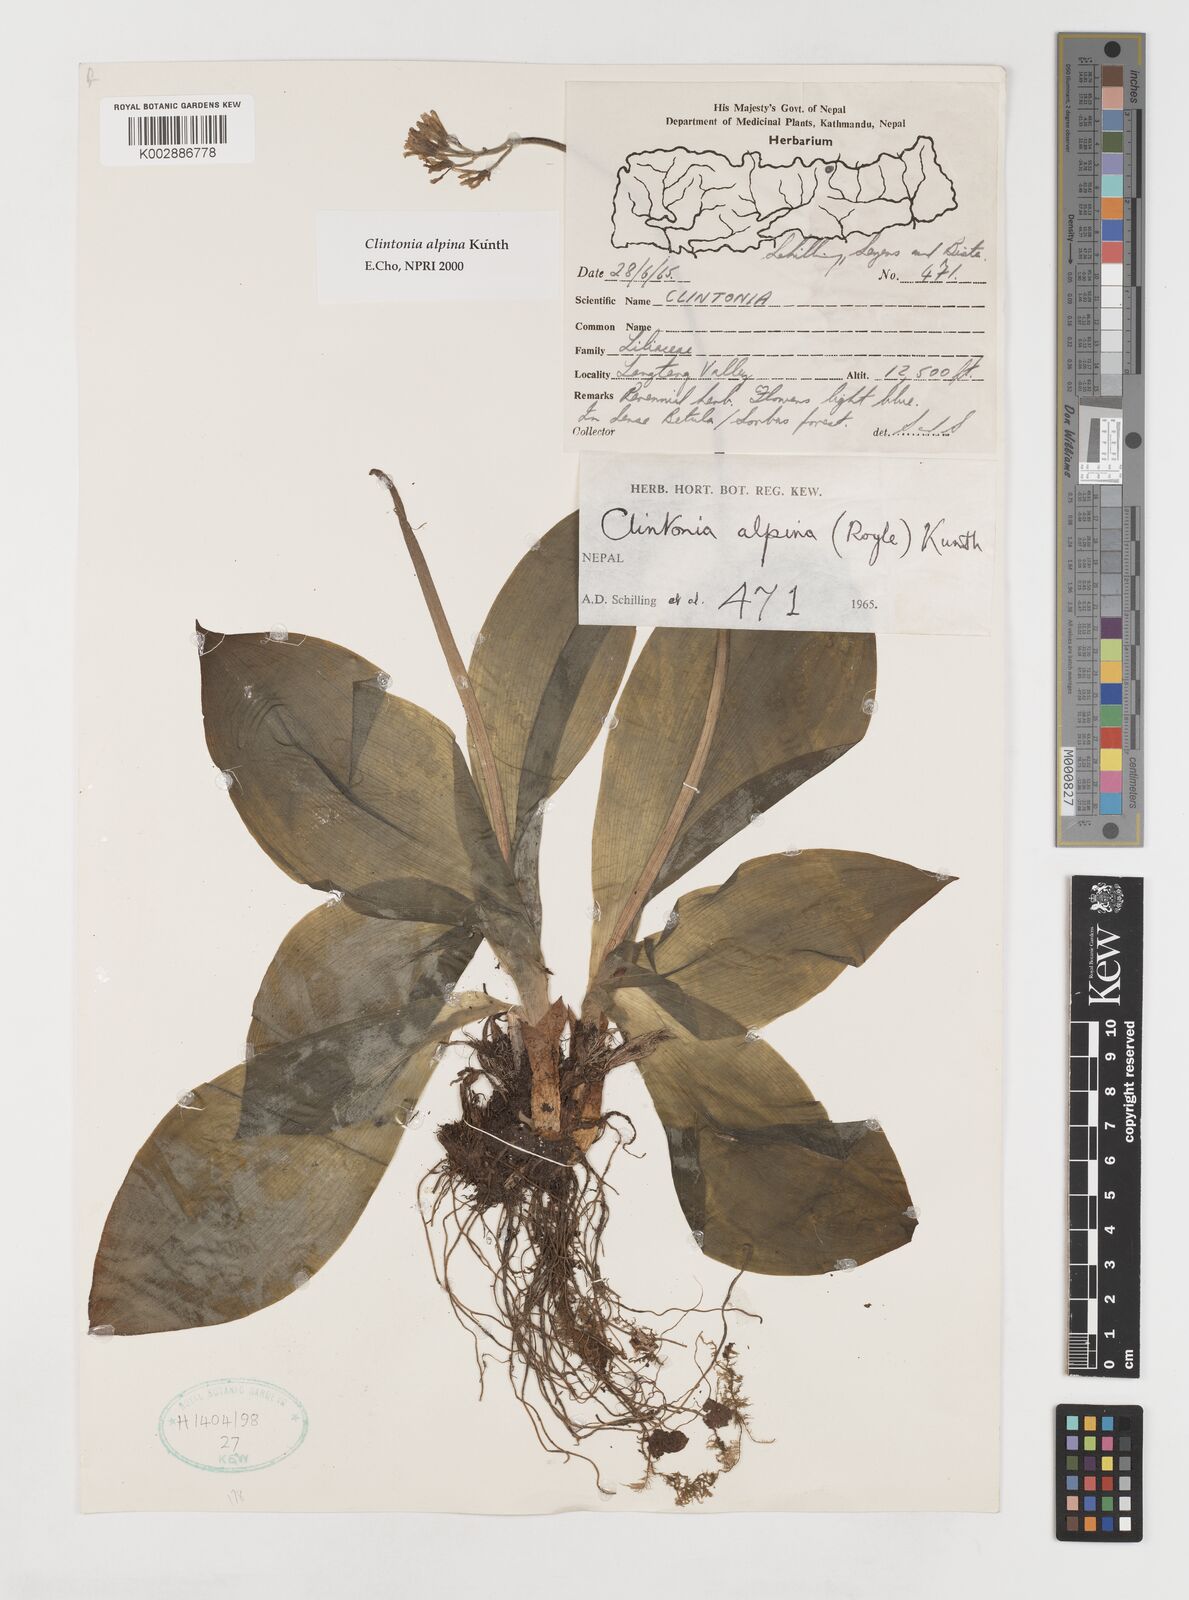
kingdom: Plantae
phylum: Tracheophyta
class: Liliopsida
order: Liliales
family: Liliaceae
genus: Clintonia
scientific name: Clintonia udensis
